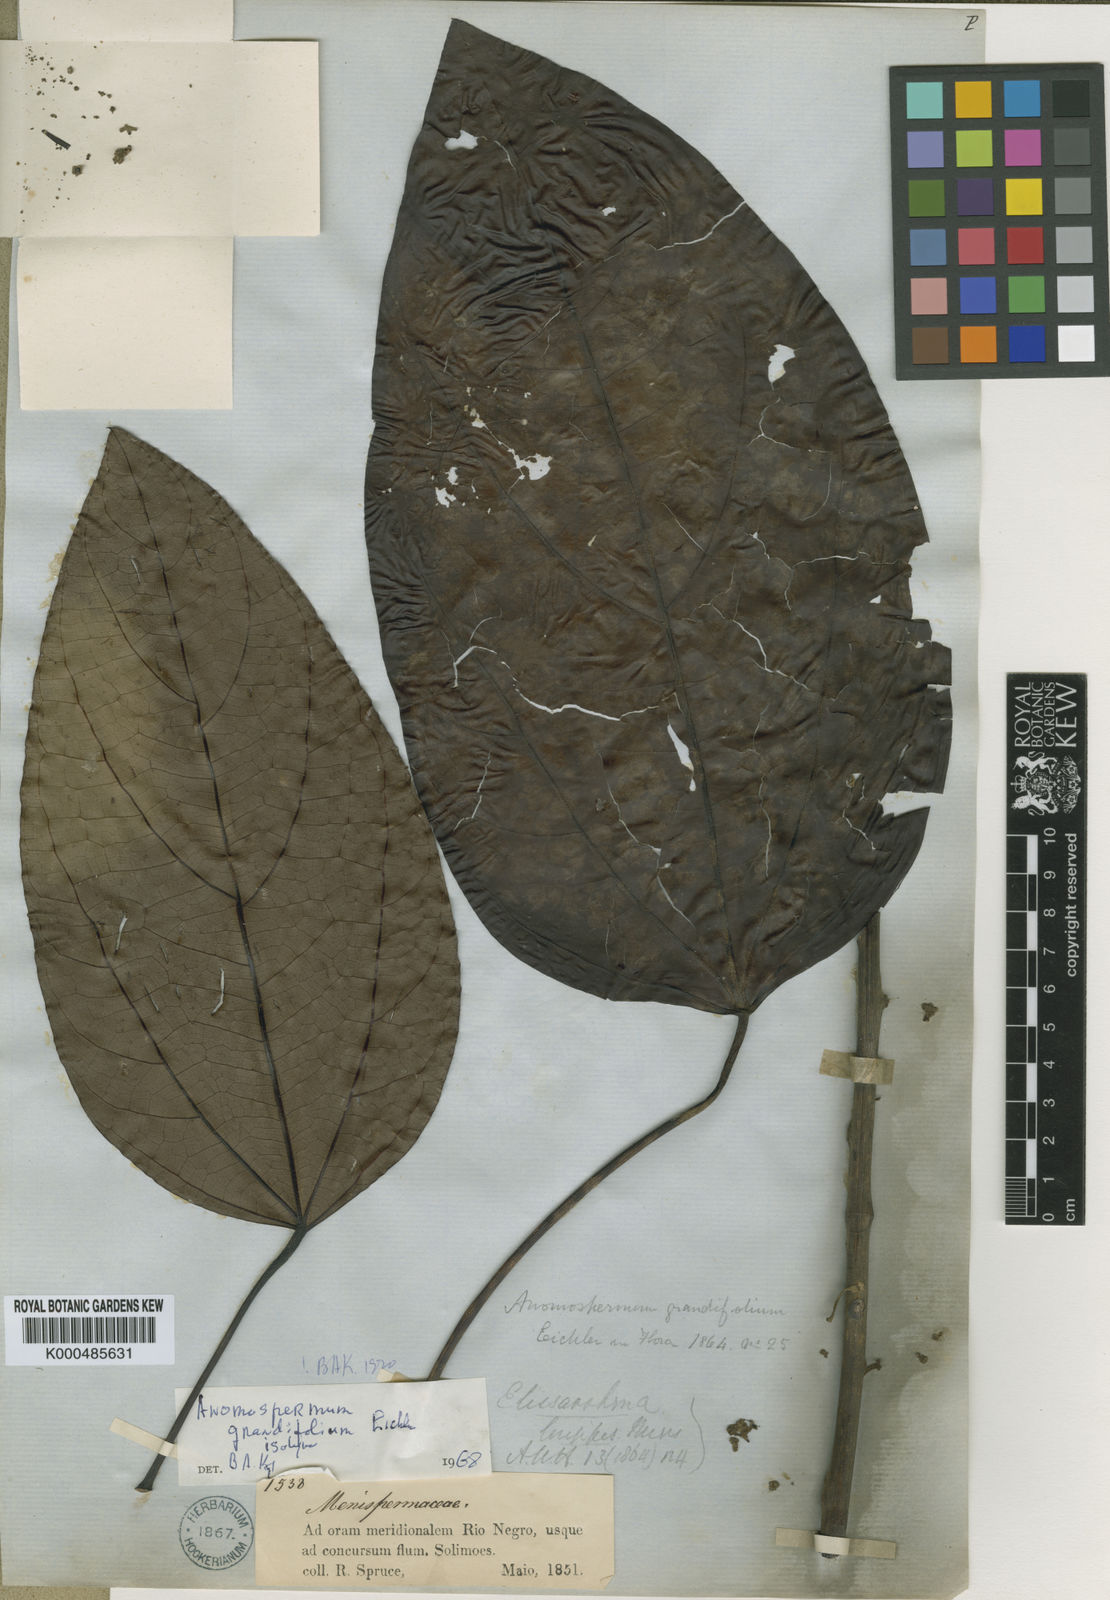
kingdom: Plantae
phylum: Tracheophyta
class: Magnoliopsida
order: Ranunculales
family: Menispermaceae
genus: Elissarrhena
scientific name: Elissarrhena longipes
